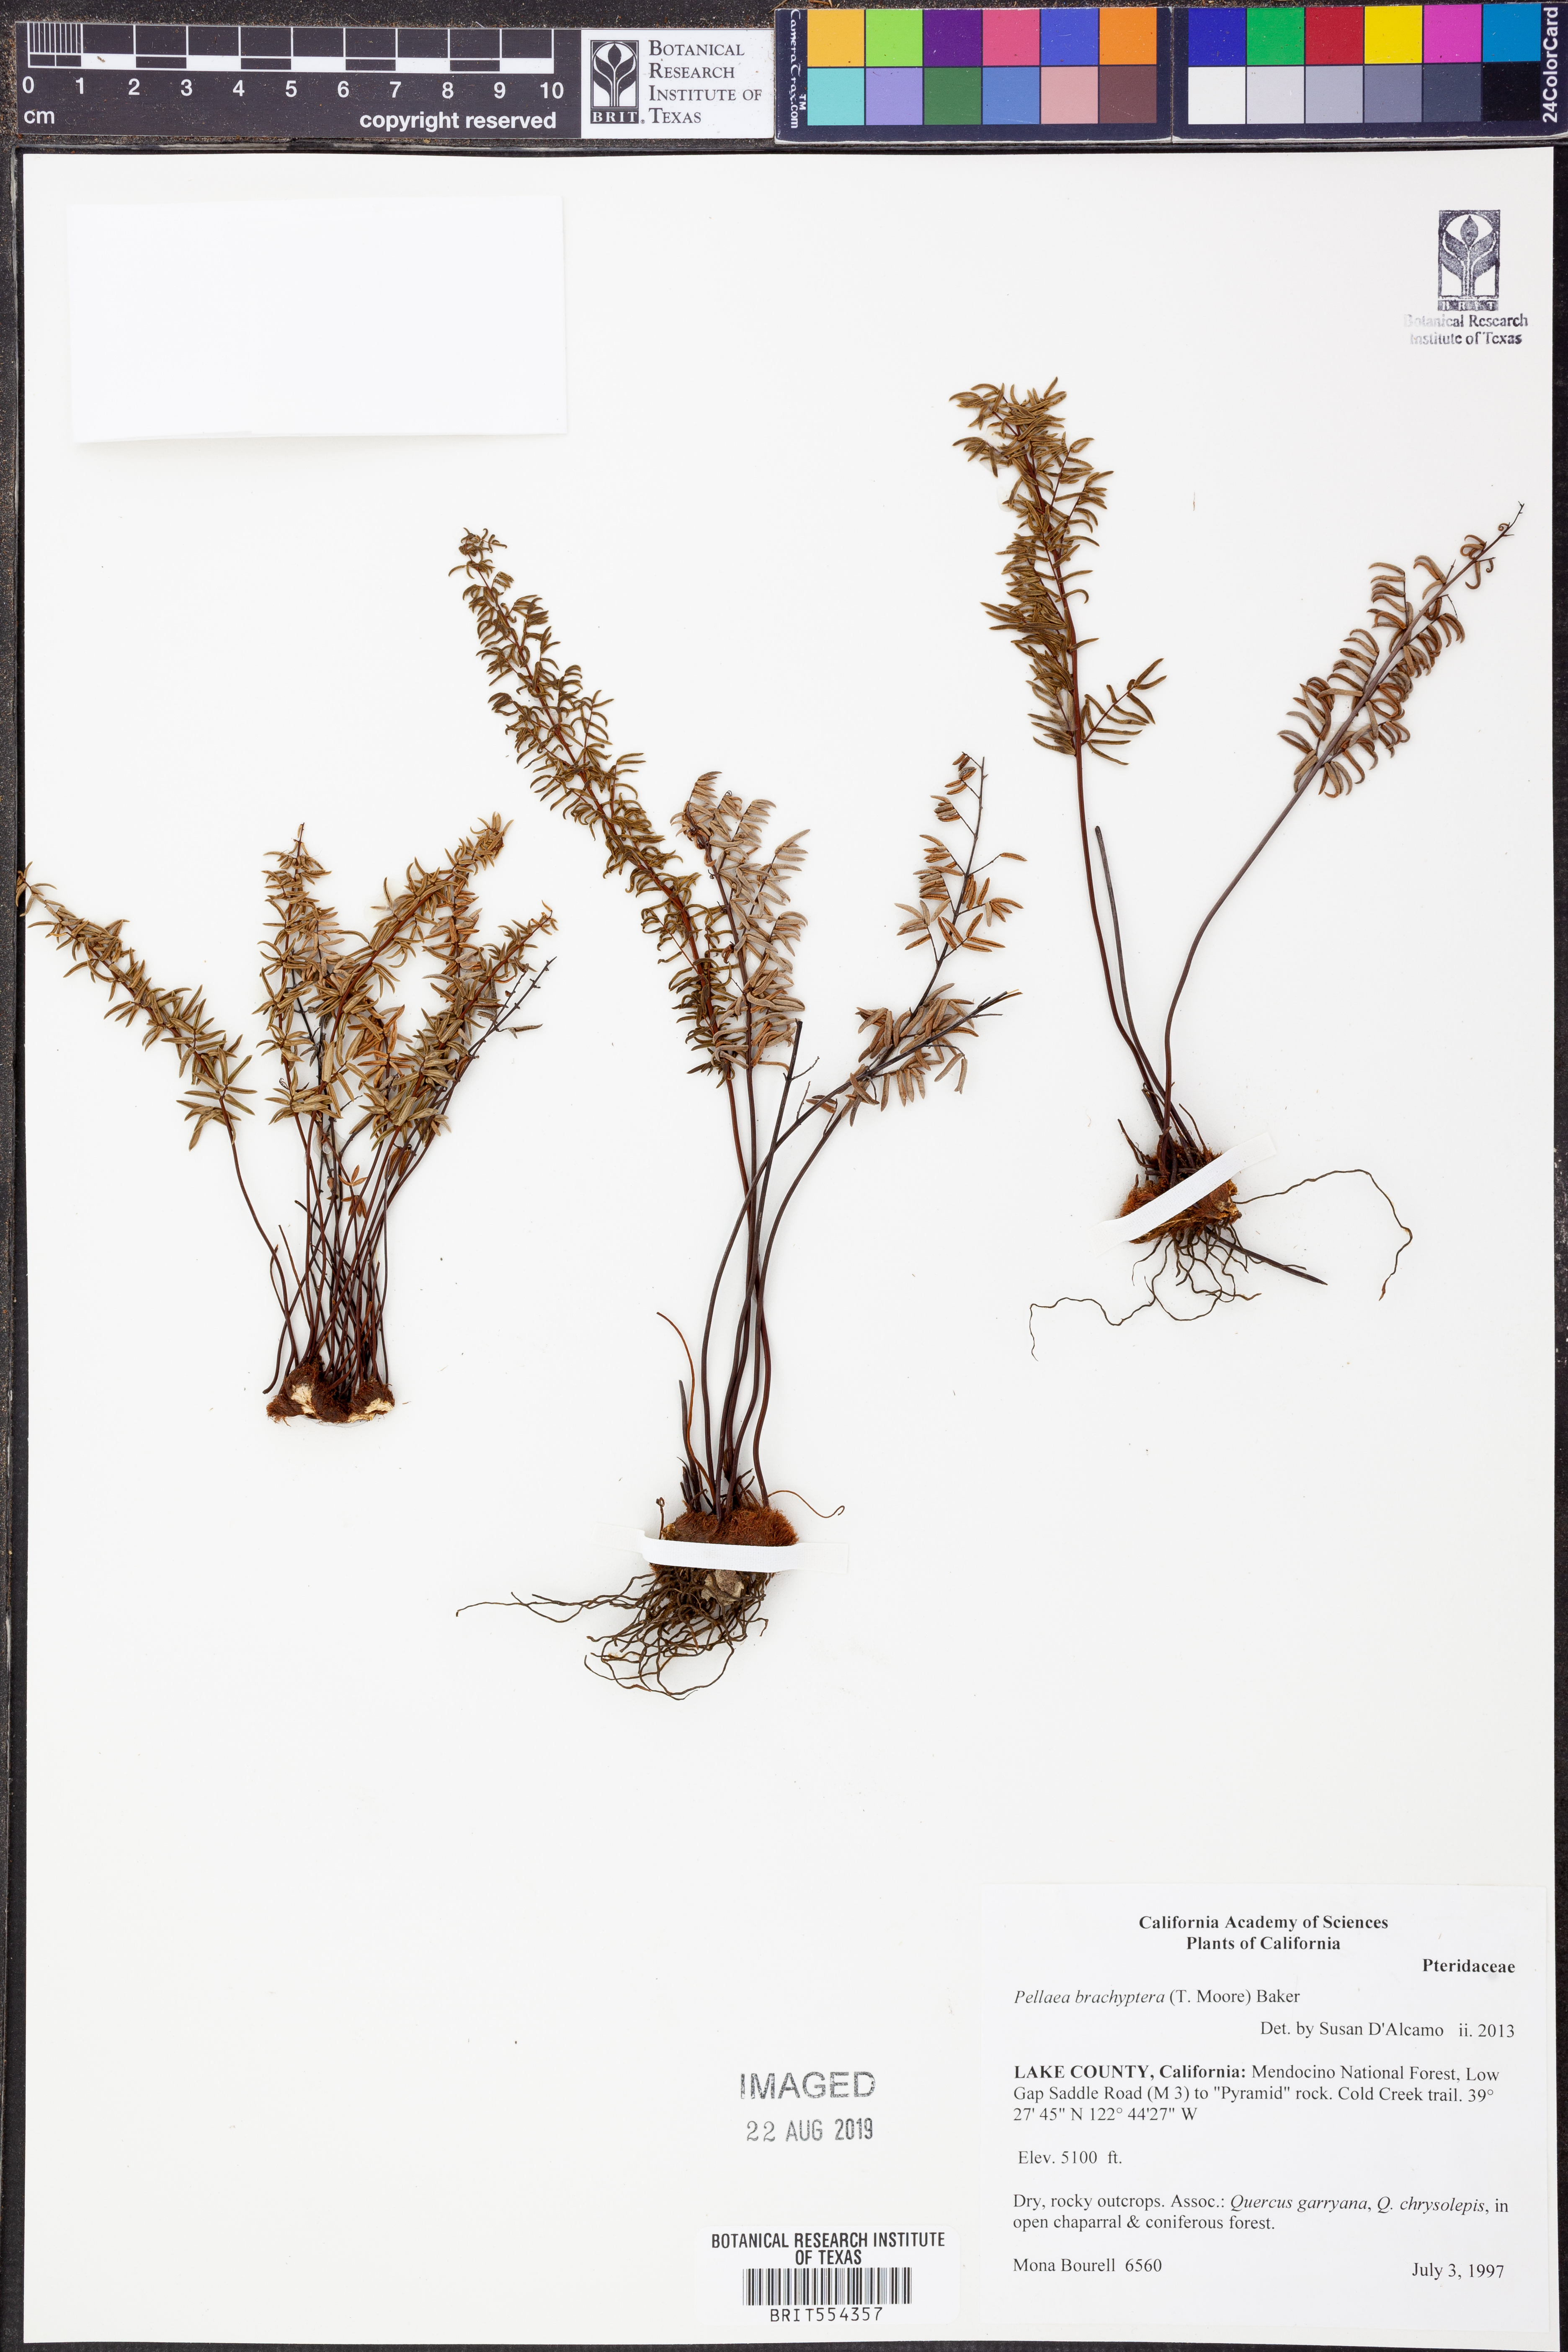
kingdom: Plantae
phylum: Tracheophyta
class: Polypodiopsida
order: Polypodiales
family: Pteridaceae
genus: Pellaea
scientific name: Pellaea brachyptera
